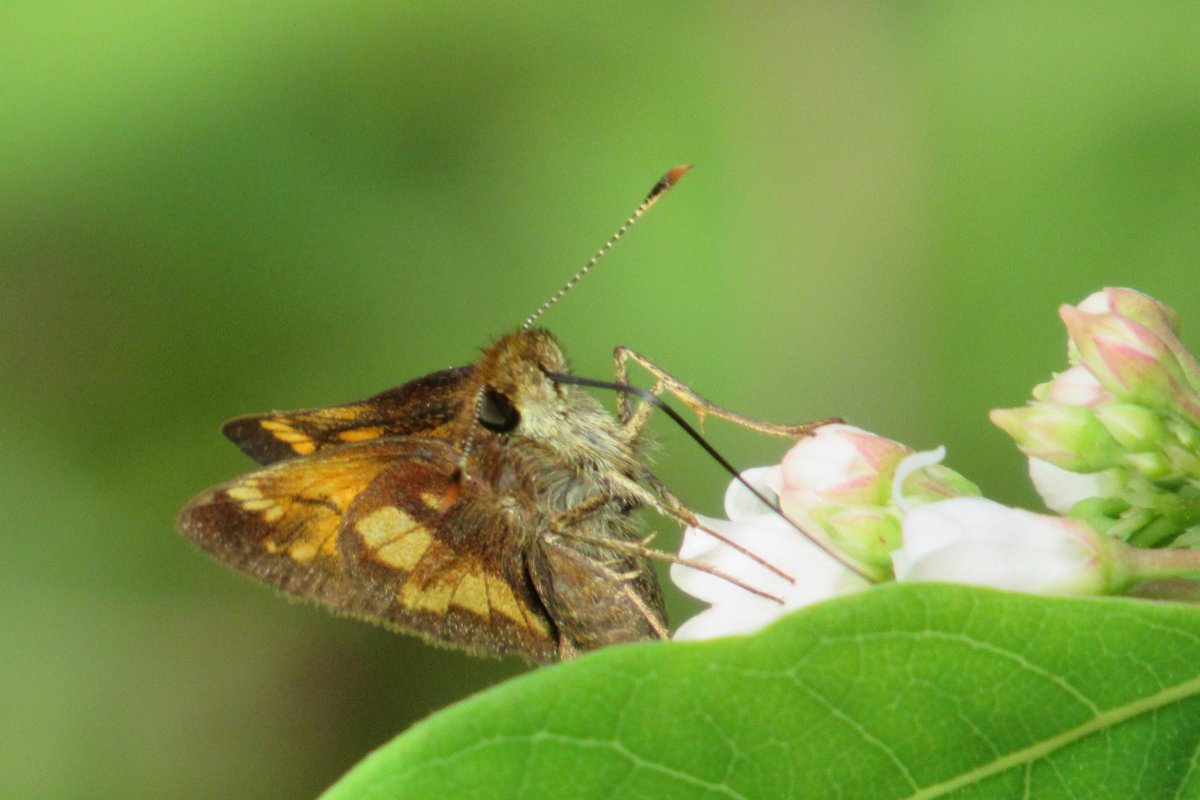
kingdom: Animalia
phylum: Arthropoda
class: Insecta
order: Lepidoptera
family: Hesperiidae
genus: Lon
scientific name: Lon hobomok
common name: Hobomok Skipper
